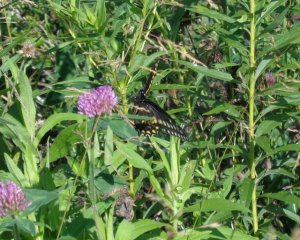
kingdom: Animalia
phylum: Arthropoda
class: Insecta
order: Lepidoptera
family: Papilionidae
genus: Papilio
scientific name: Papilio polyxenes
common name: Black Swallowtail
